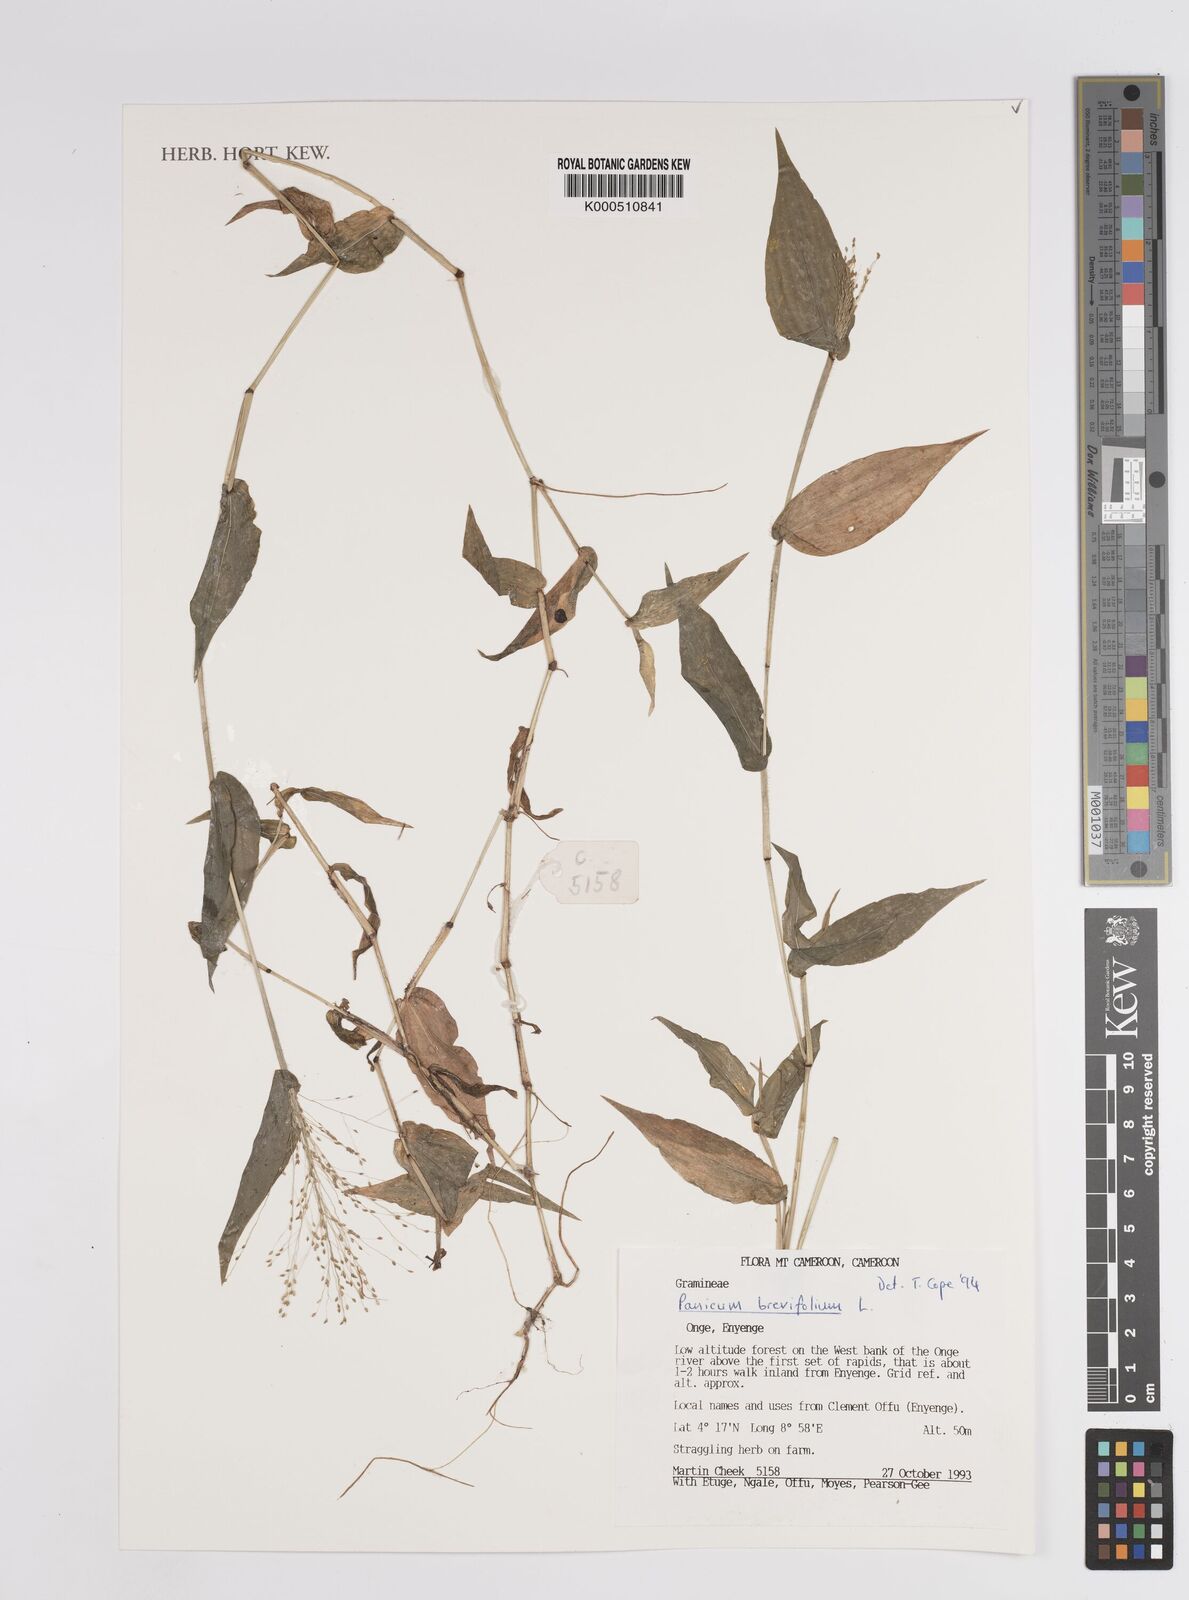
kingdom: Plantae
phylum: Tracheophyta
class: Liliopsida
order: Poales
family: Poaceae
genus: Panicum
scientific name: Panicum brevifolium
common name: Shortleaf panic grass
